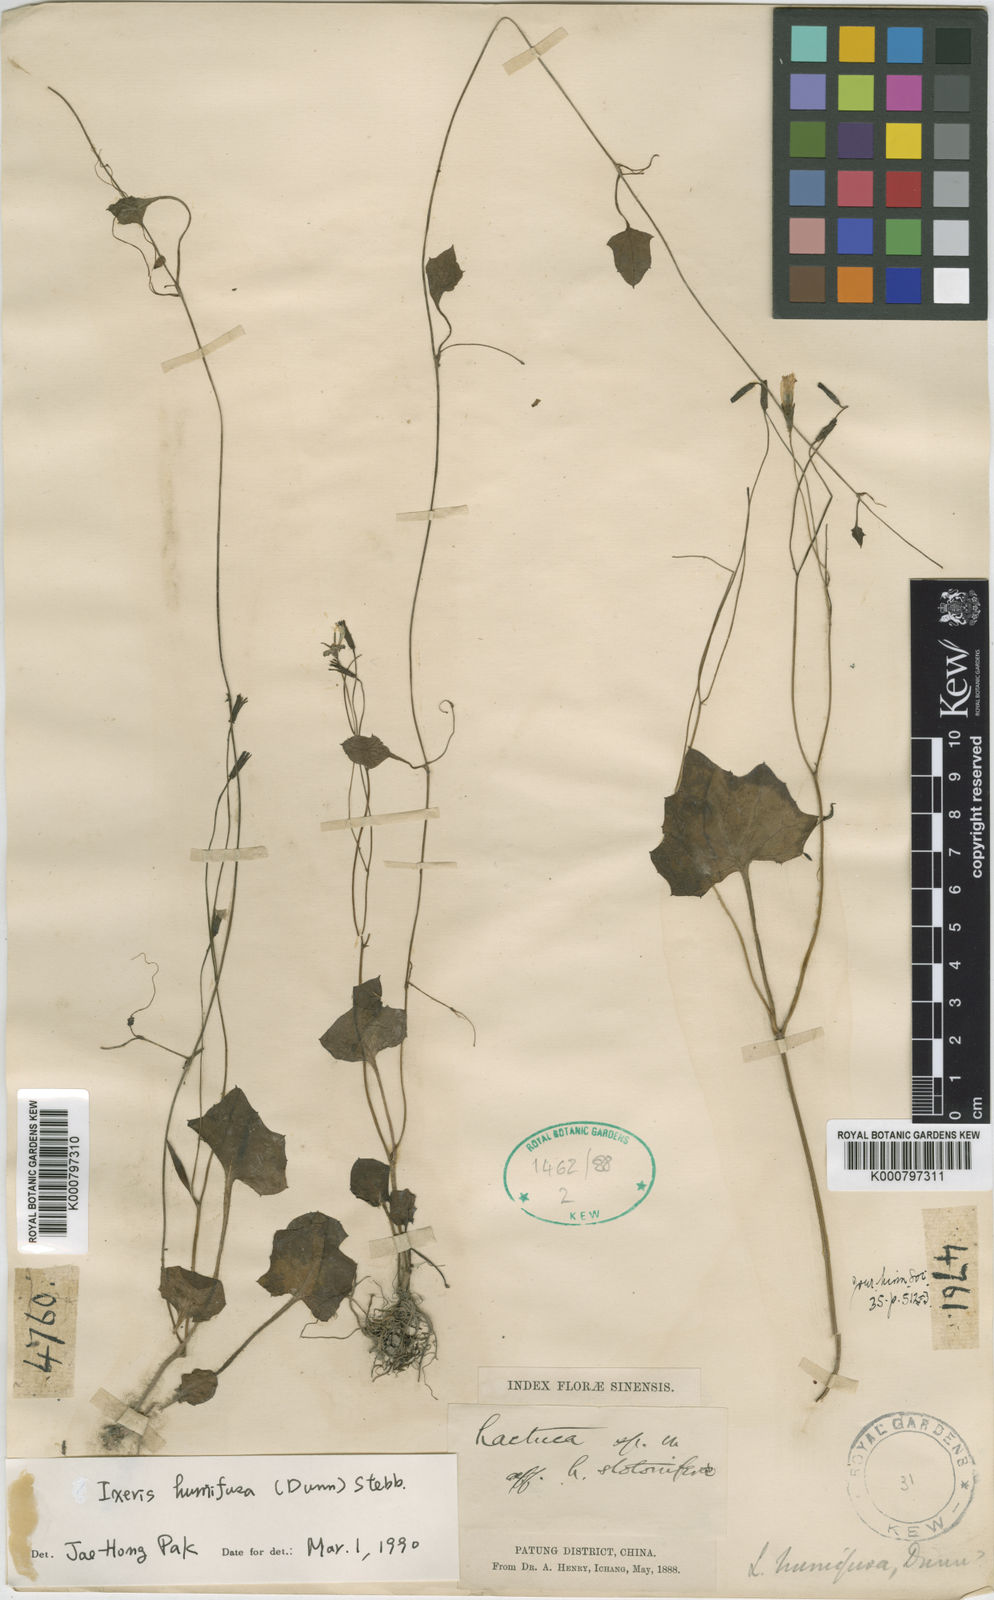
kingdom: Plantae
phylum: Tracheophyta
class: Magnoliopsida
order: Asterales
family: Asteraceae
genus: Youngia
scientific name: Youngia humifusa
